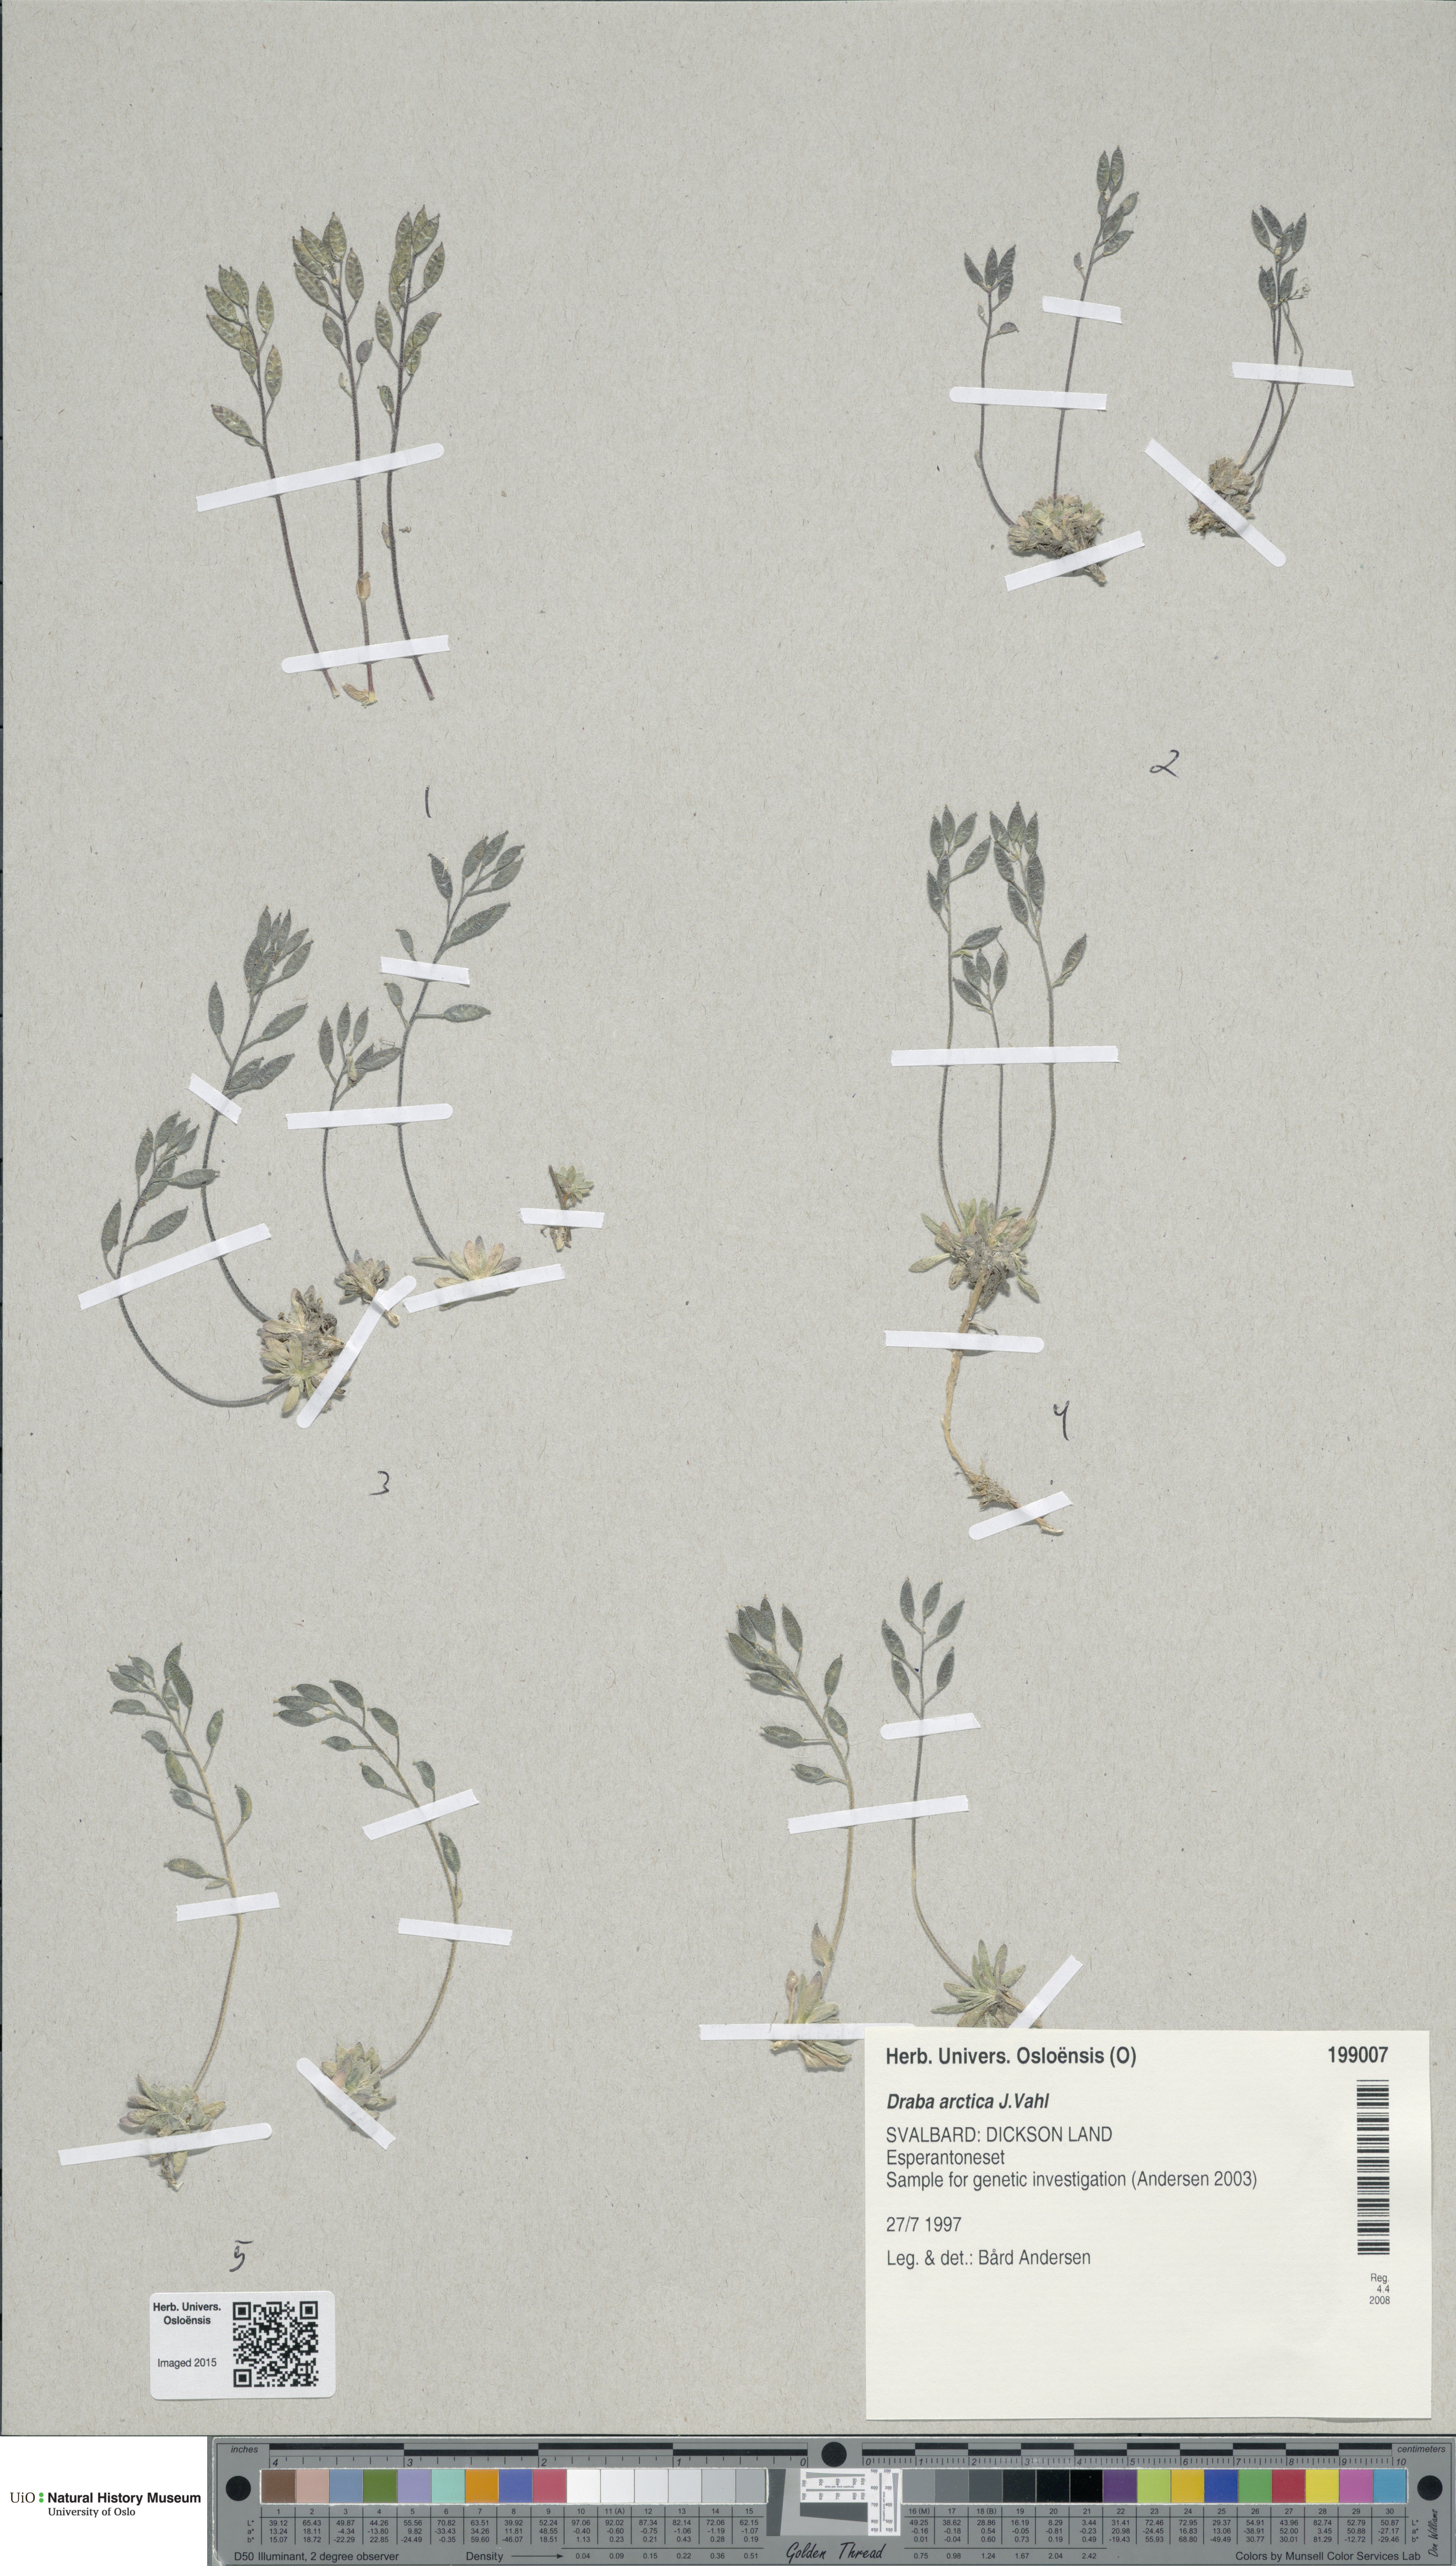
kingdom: Plantae
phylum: Tracheophyta
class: Magnoliopsida
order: Brassicales
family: Brassicaceae
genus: Draba
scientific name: Draba arctica
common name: Arctic draba
